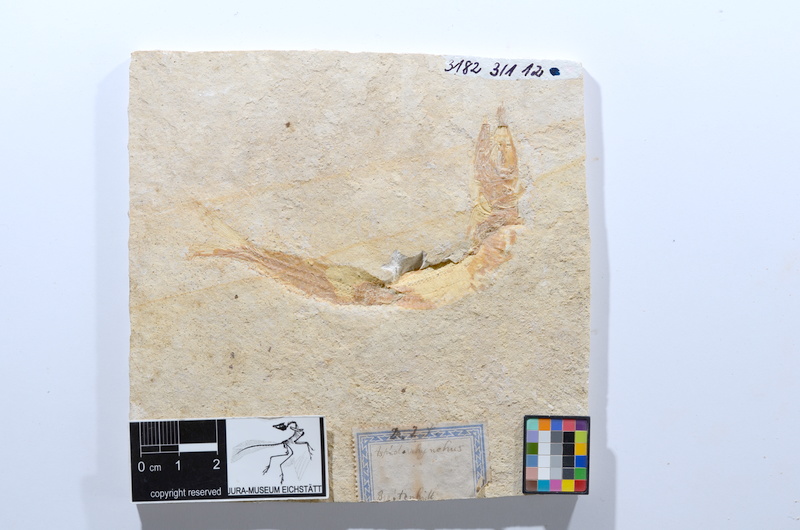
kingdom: Animalia
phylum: Chordata
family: Aspidorhynchidae
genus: Aspidorhynchus
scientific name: Aspidorhynchus acutirostris
